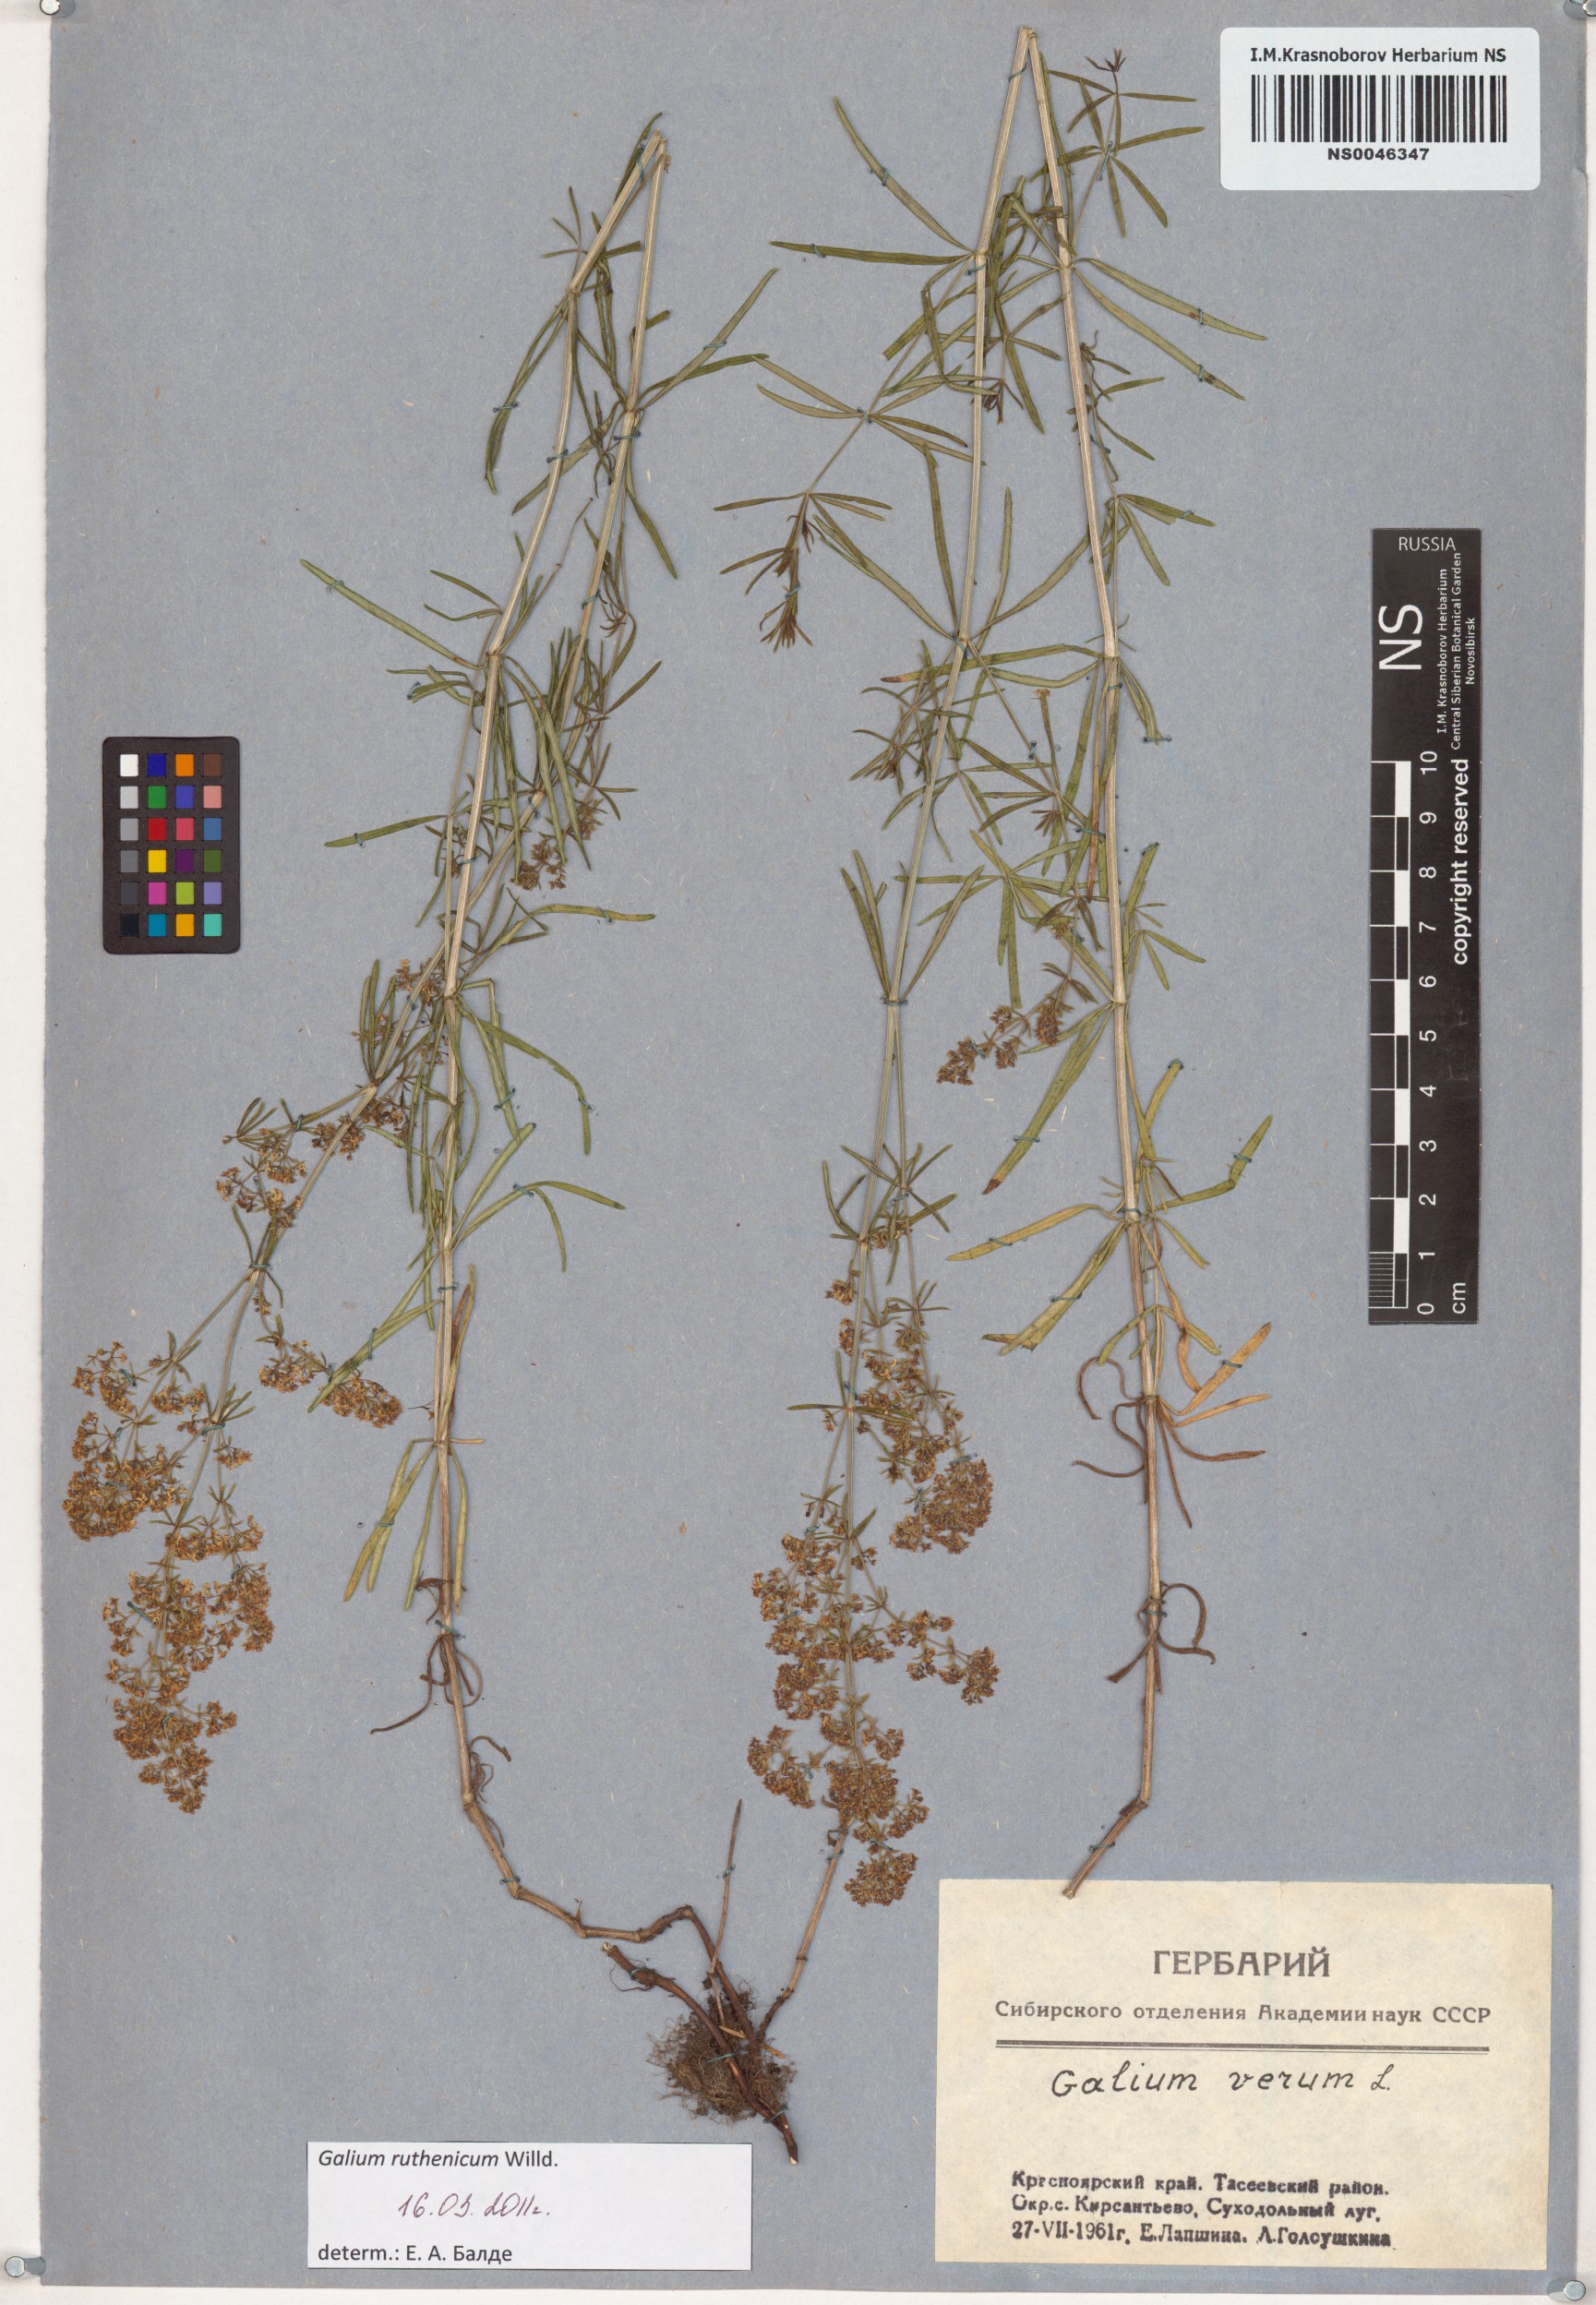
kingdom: Plantae
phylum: Tracheophyta
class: Magnoliopsida
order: Gentianales
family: Rubiaceae
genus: Galium
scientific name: Galium verum
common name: Lady's bedstraw
